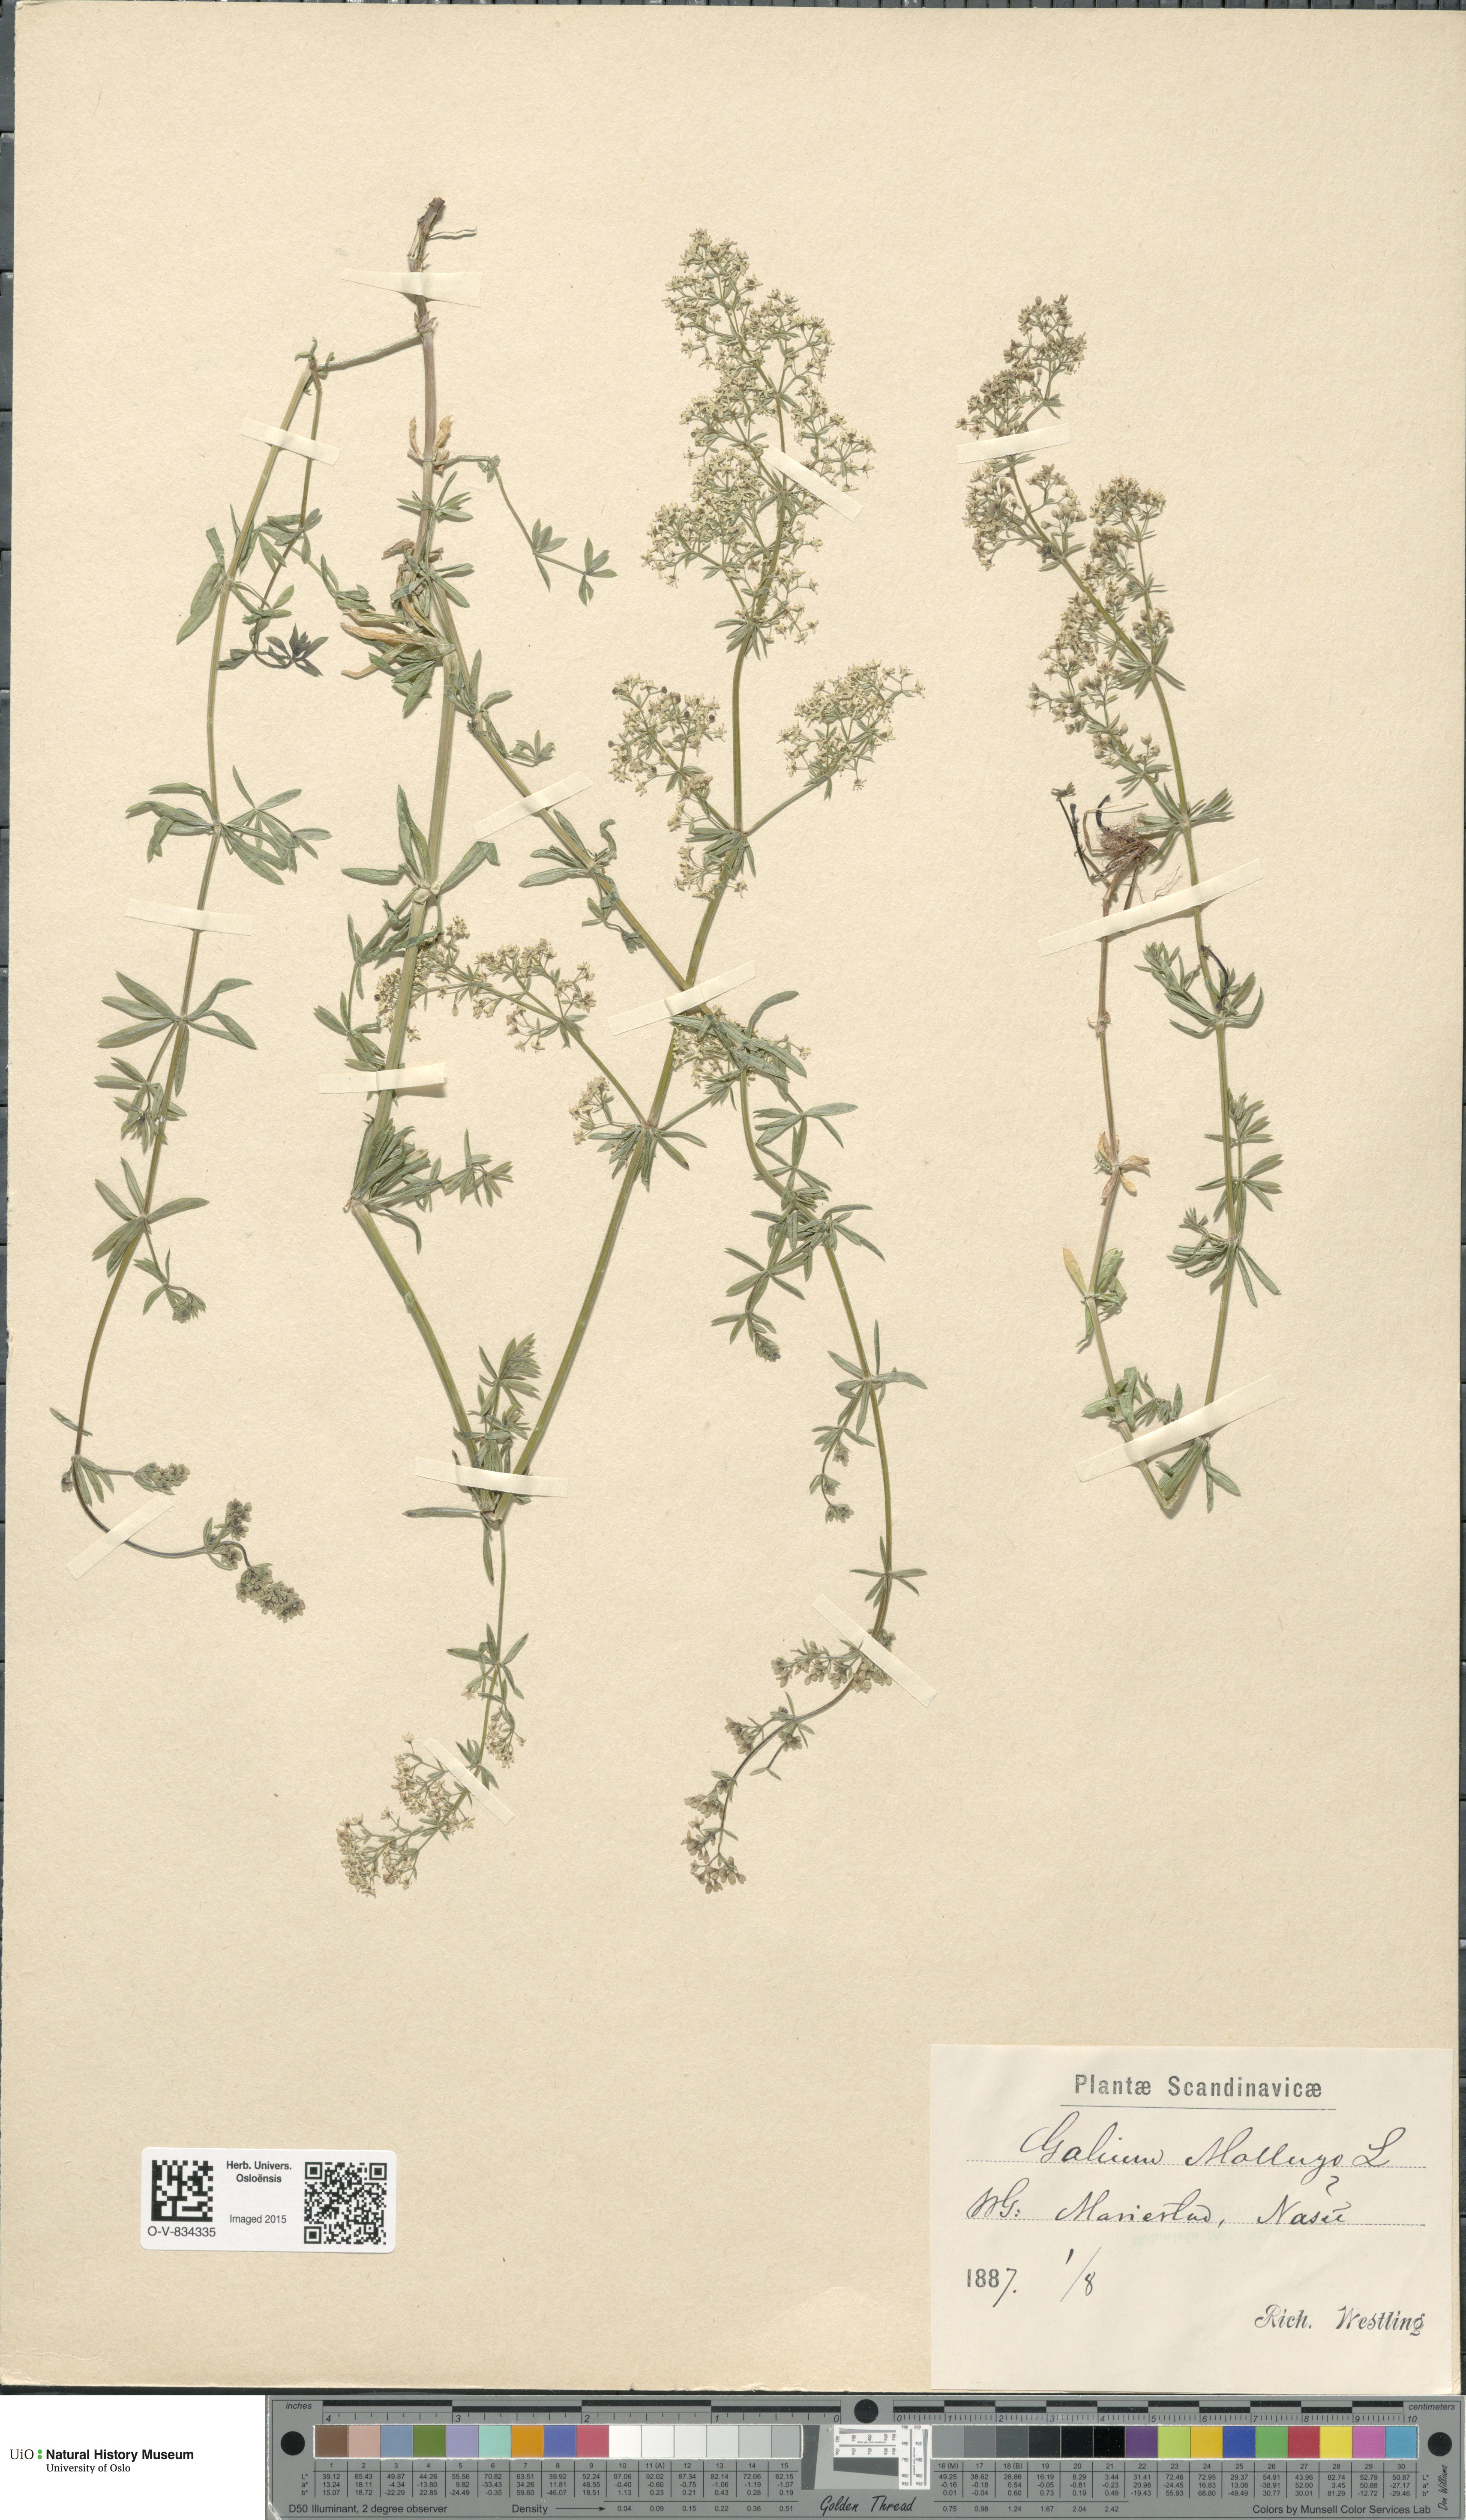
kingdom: Plantae
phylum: Tracheophyta
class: Magnoliopsida
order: Gentianales
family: Rubiaceae
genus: Galium
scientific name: Galium mollugo
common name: Hedge bedstraw
